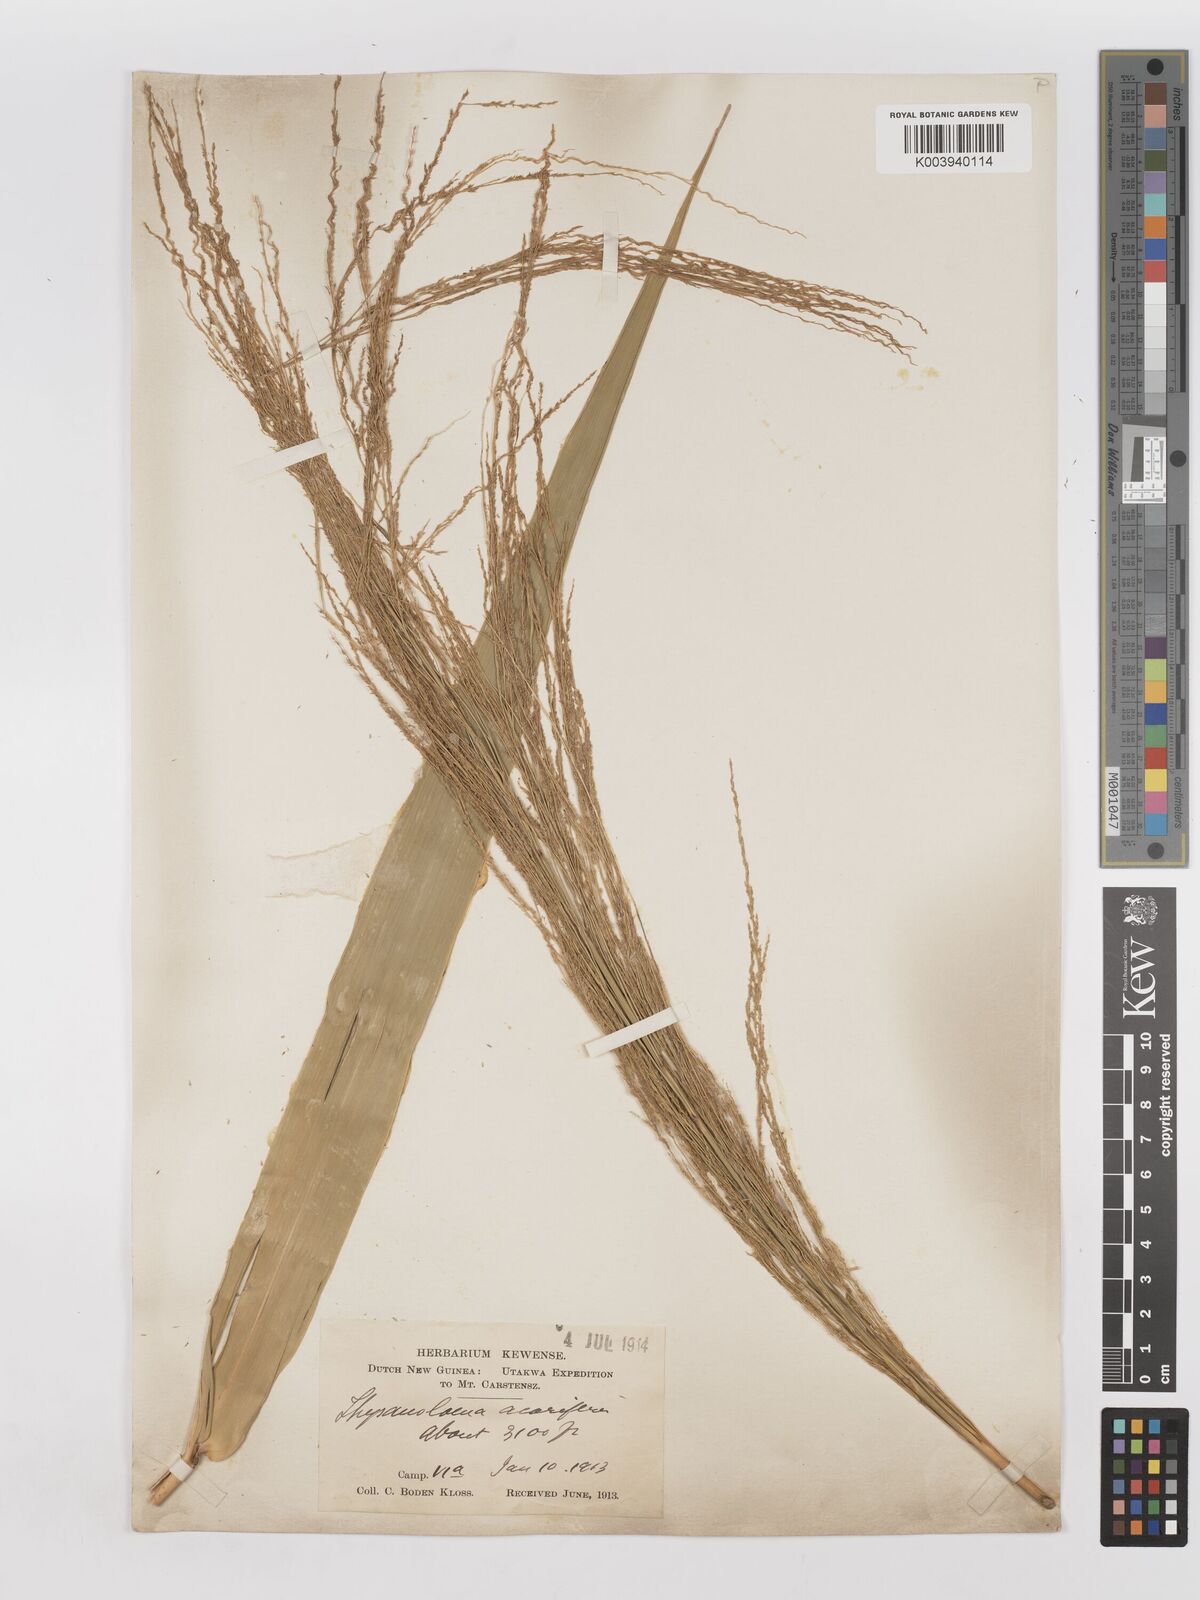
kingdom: Plantae
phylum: Tracheophyta
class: Liliopsida
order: Poales
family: Poaceae
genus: Thysanolaena
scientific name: Thysanolaena latifolia
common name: Tiger grass
